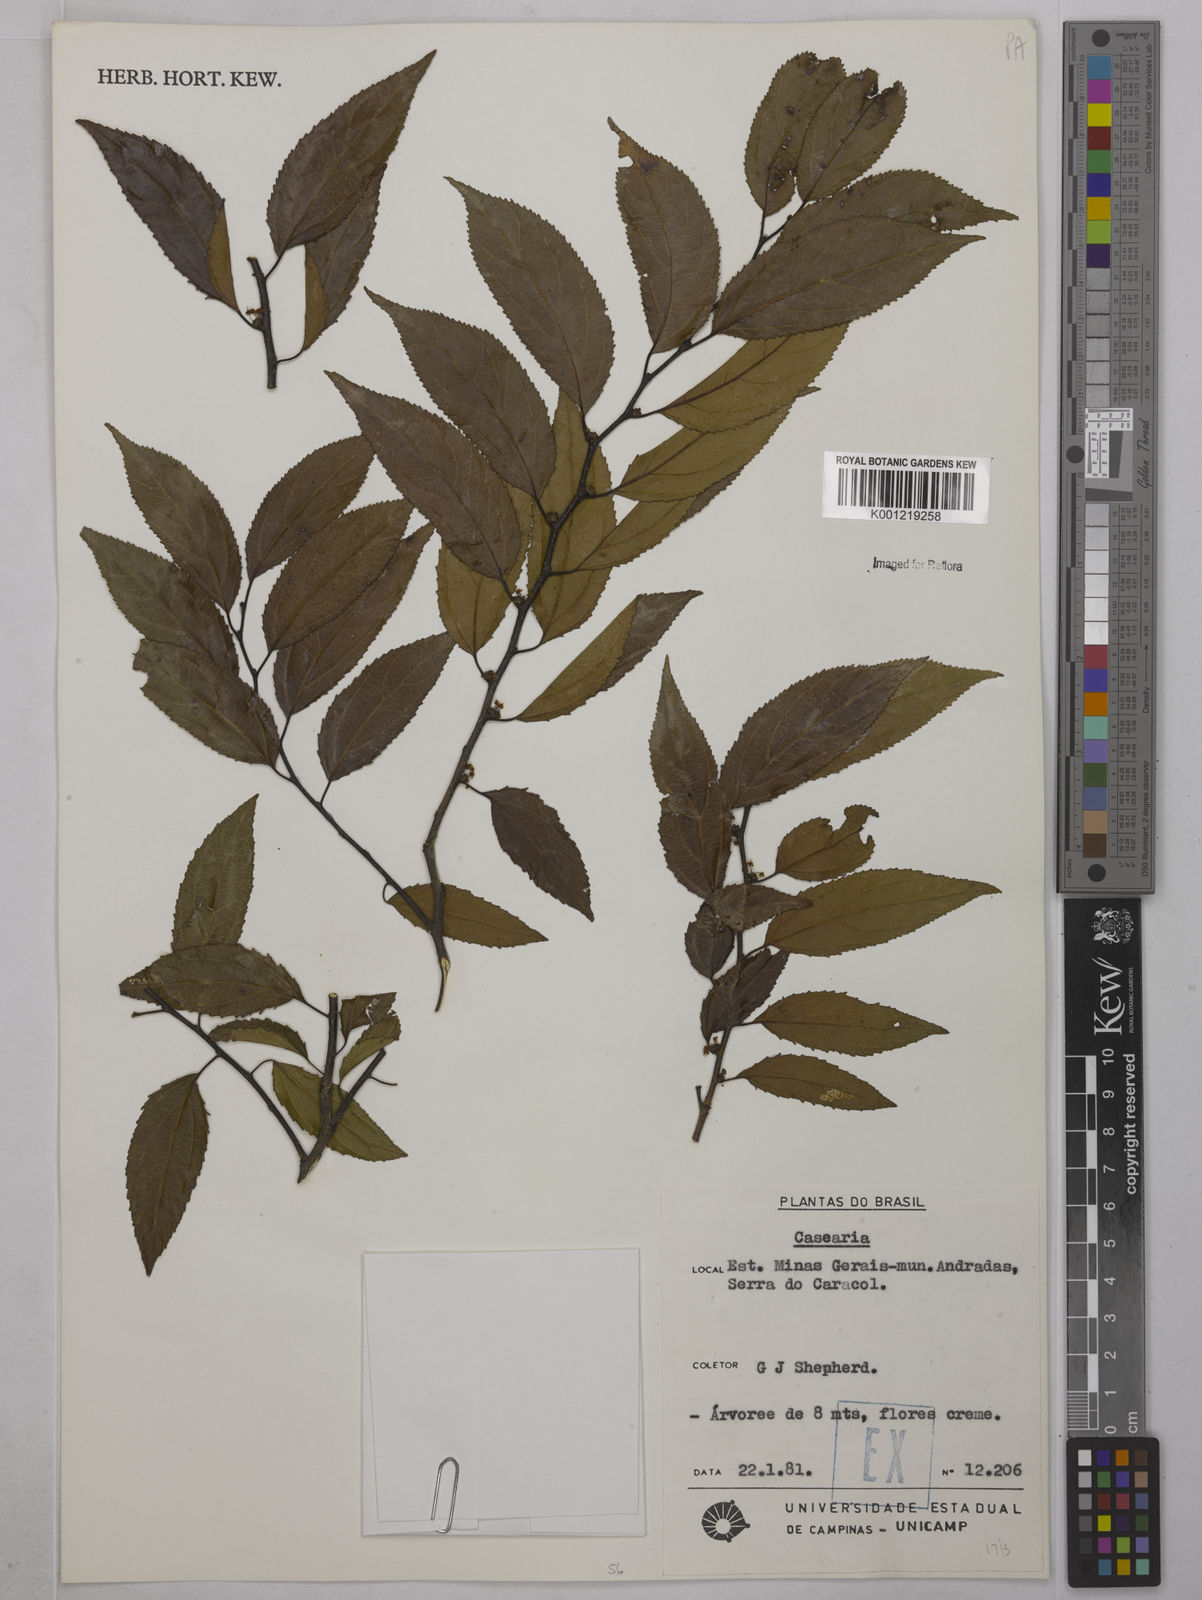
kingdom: Plantae
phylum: Tracheophyta
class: Magnoliopsida
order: Malpighiales
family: Salicaceae
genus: Casearia
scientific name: Casearia
